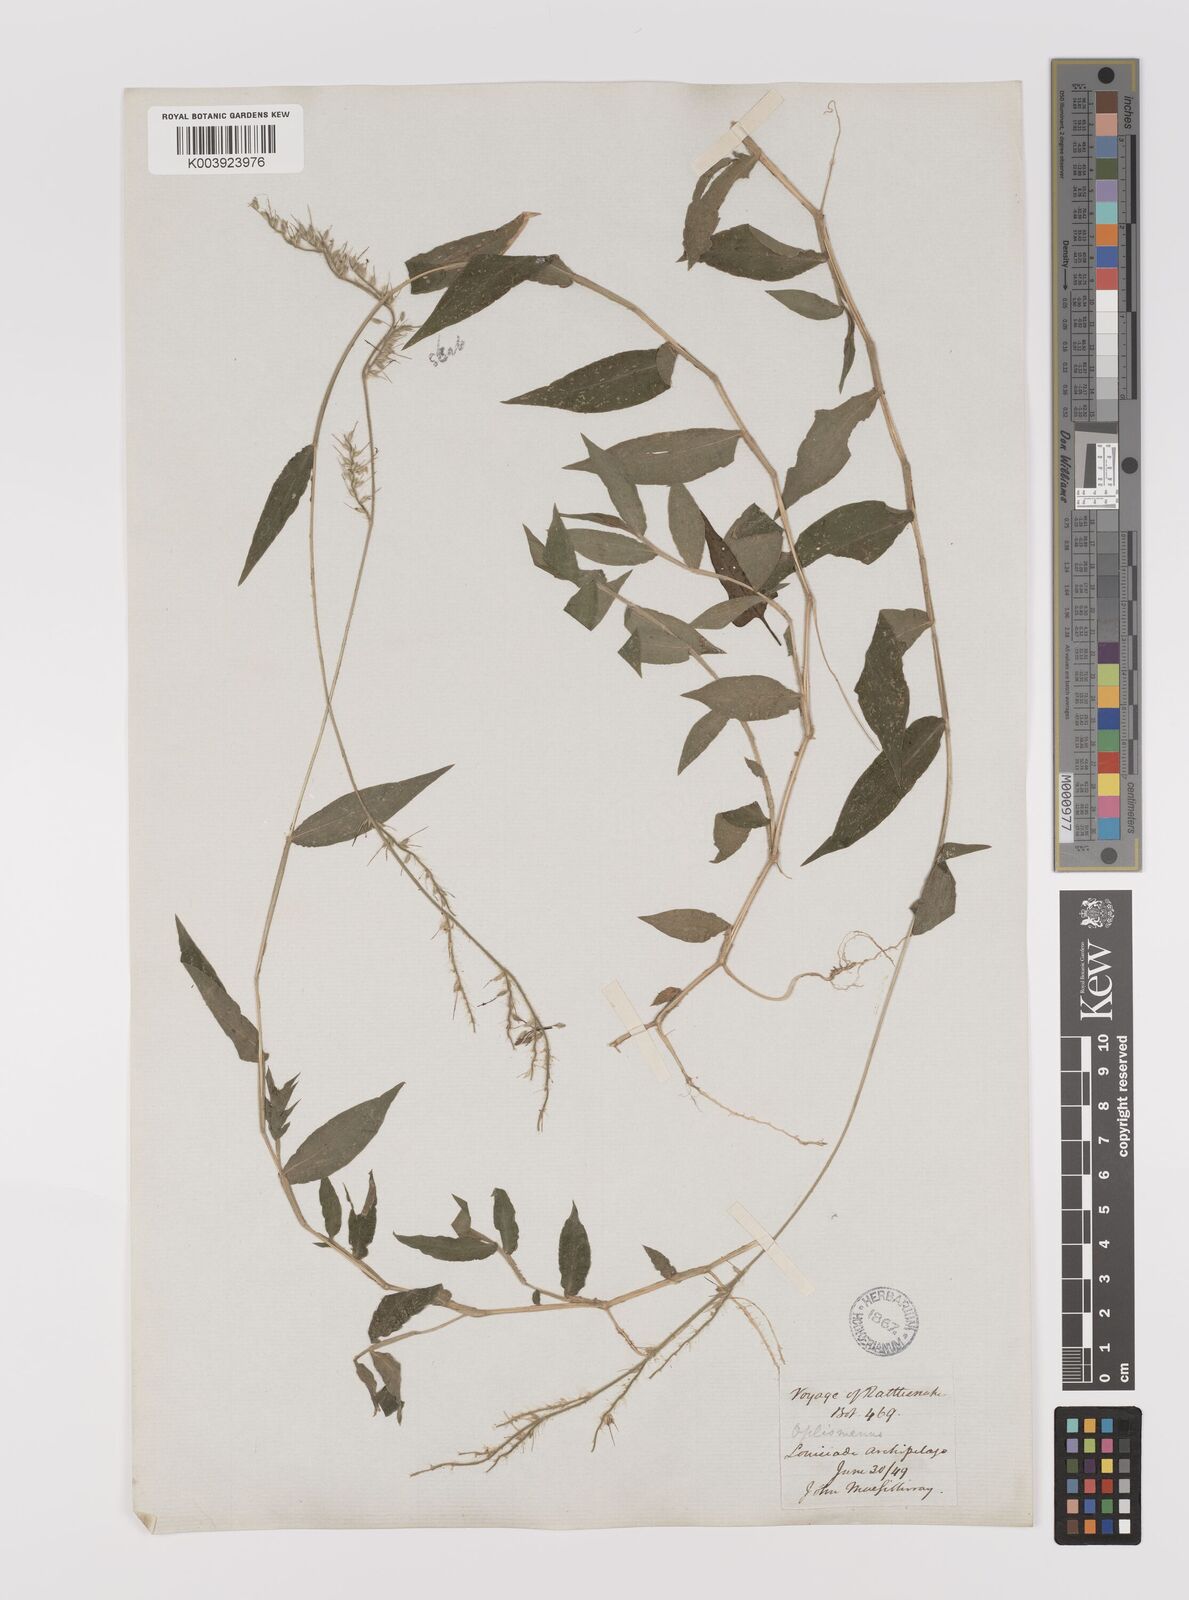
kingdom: Plantae
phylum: Tracheophyta
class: Liliopsida
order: Poales
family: Poaceae
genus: Oplismenus
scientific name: Oplismenus compositus
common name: Running mountain grass
